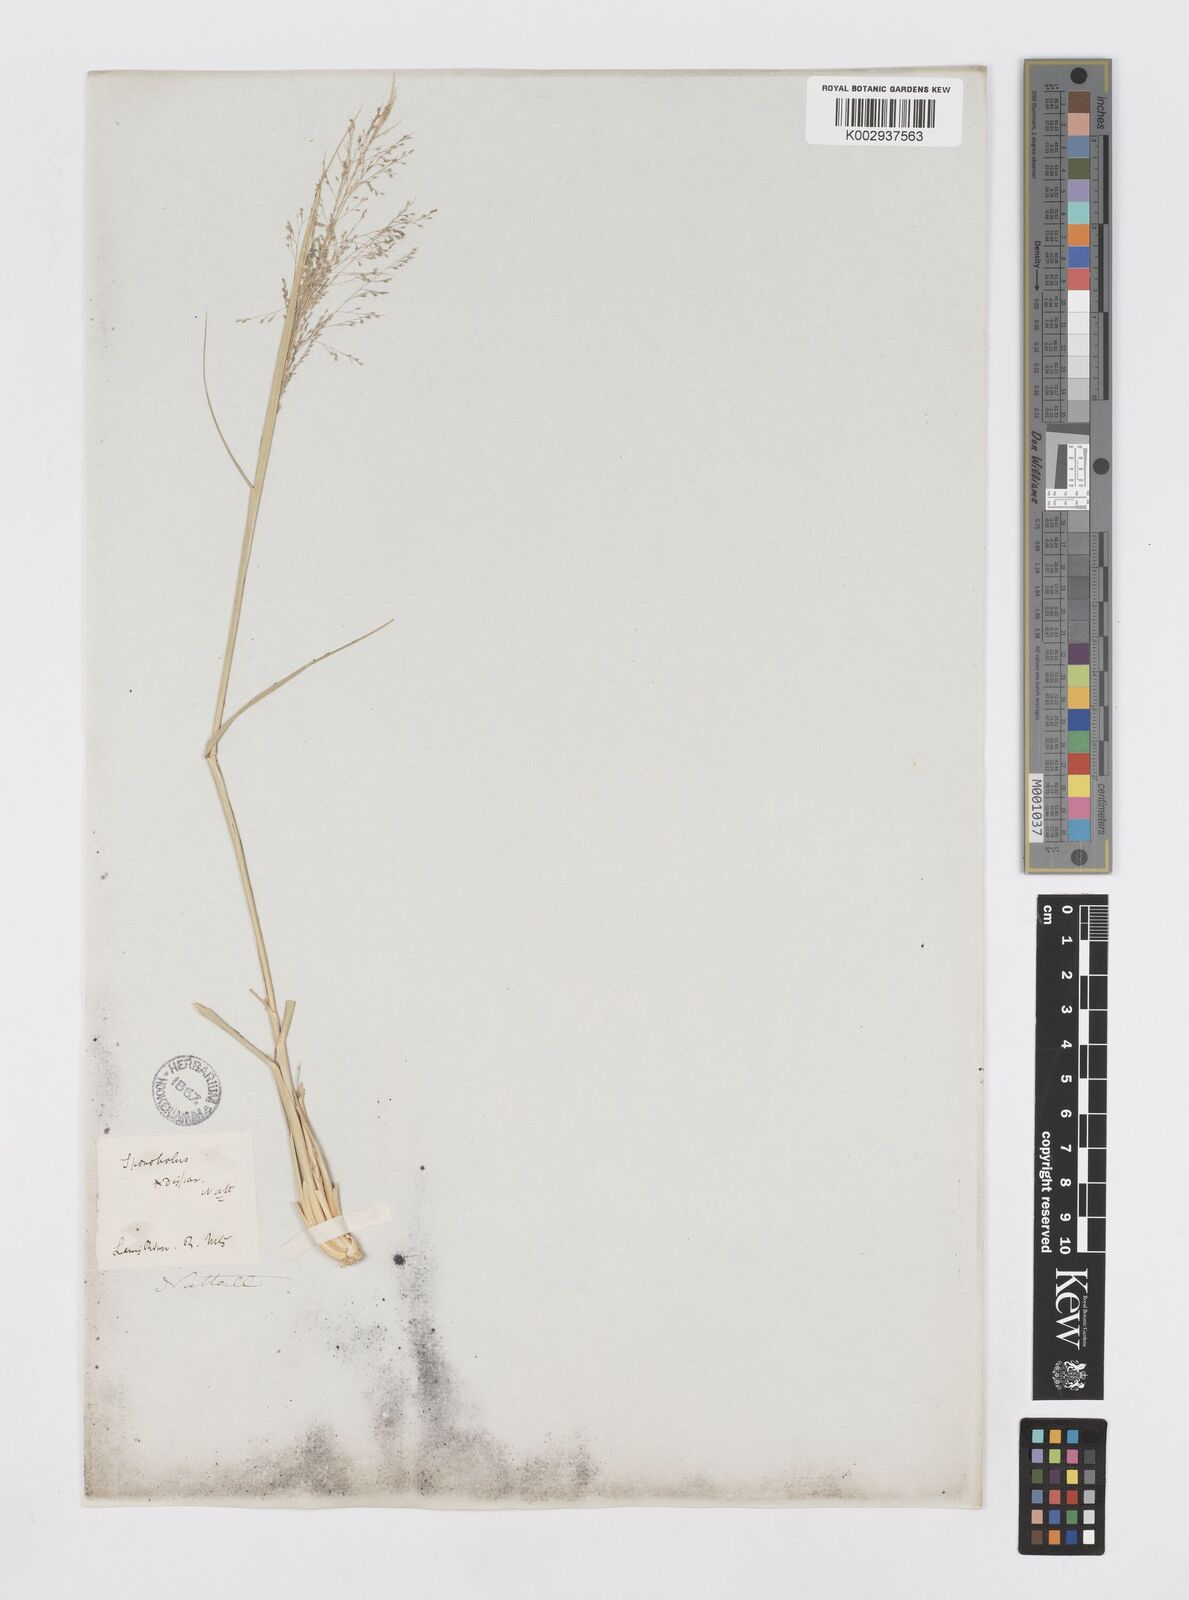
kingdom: Plantae
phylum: Tracheophyta
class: Liliopsida
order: Poales
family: Poaceae
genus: Sporobolus
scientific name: Sporobolus
